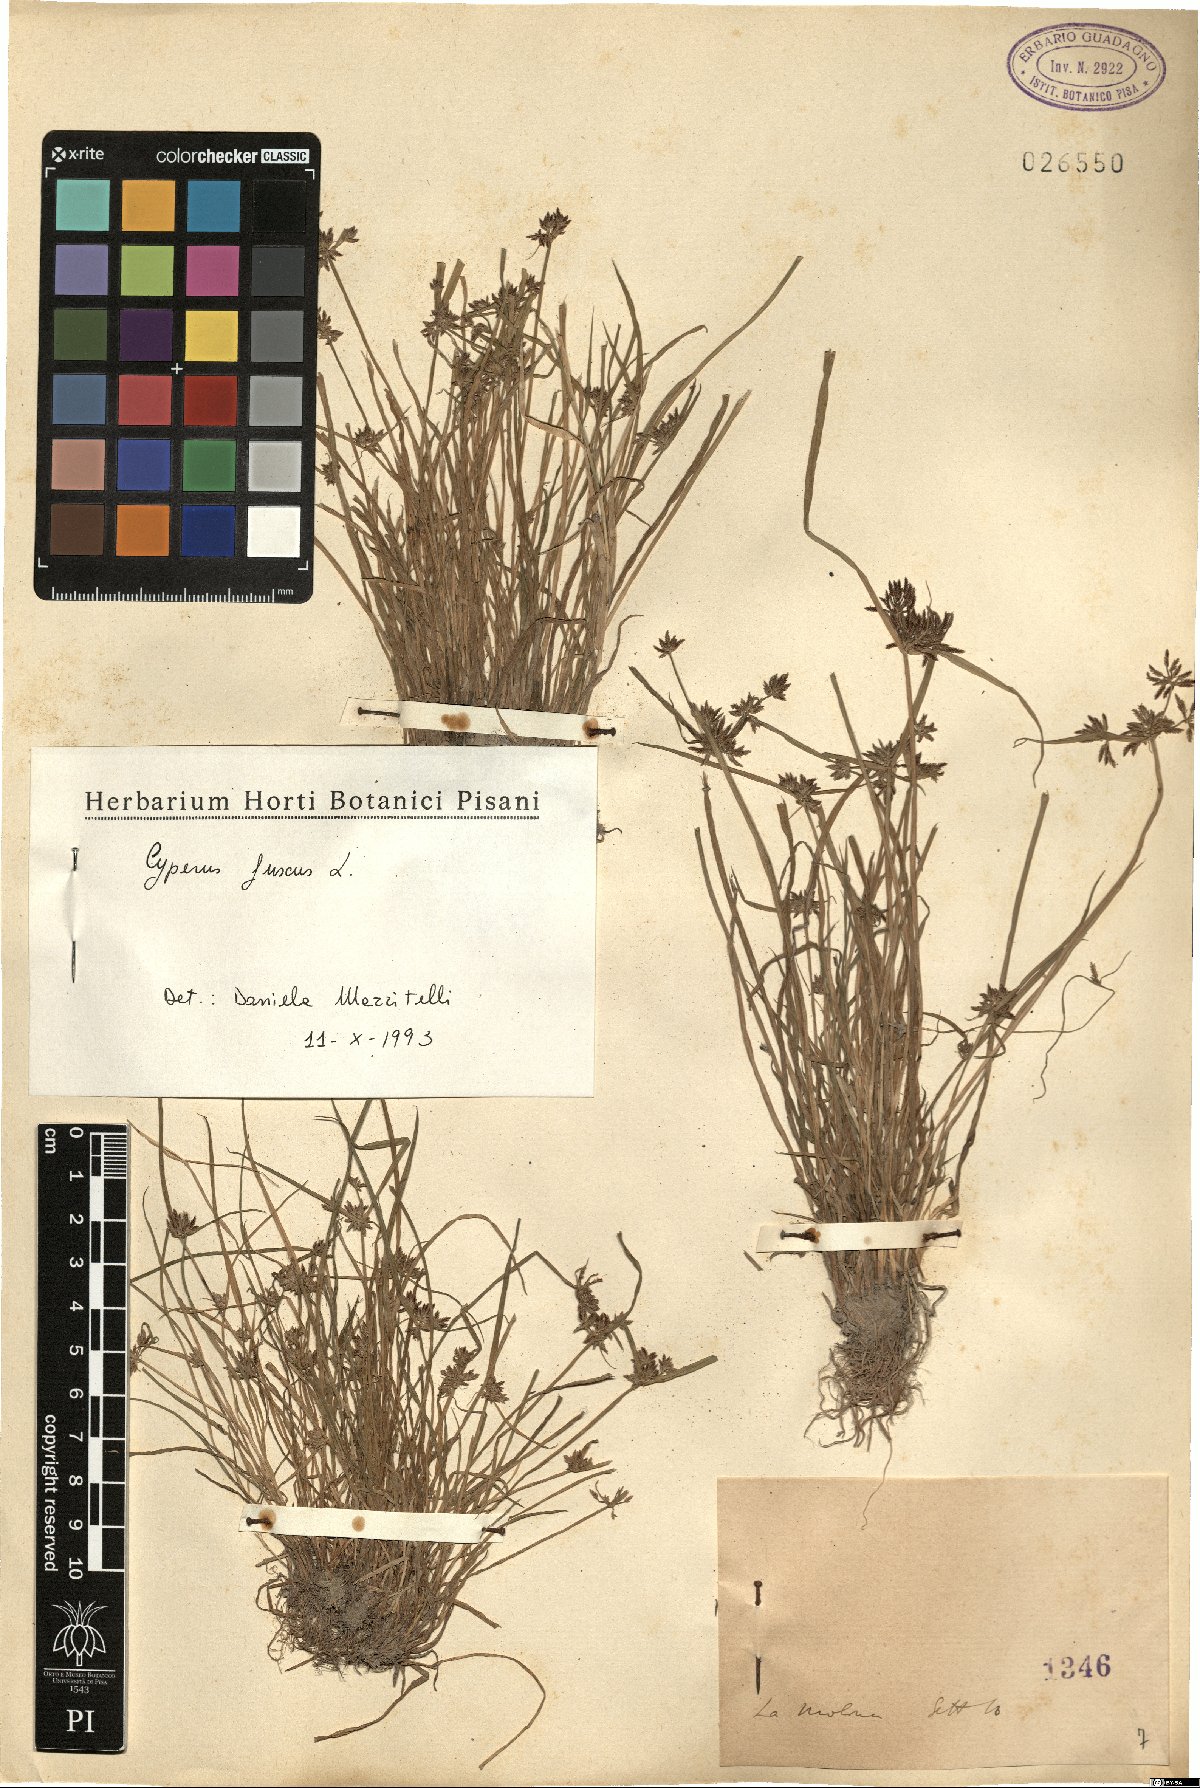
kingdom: Plantae
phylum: Tracheophyta
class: Liliopsida
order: Poales
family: Cyperaceae
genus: Cyperus
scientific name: Cyperus fuscus
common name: Brown galingale
